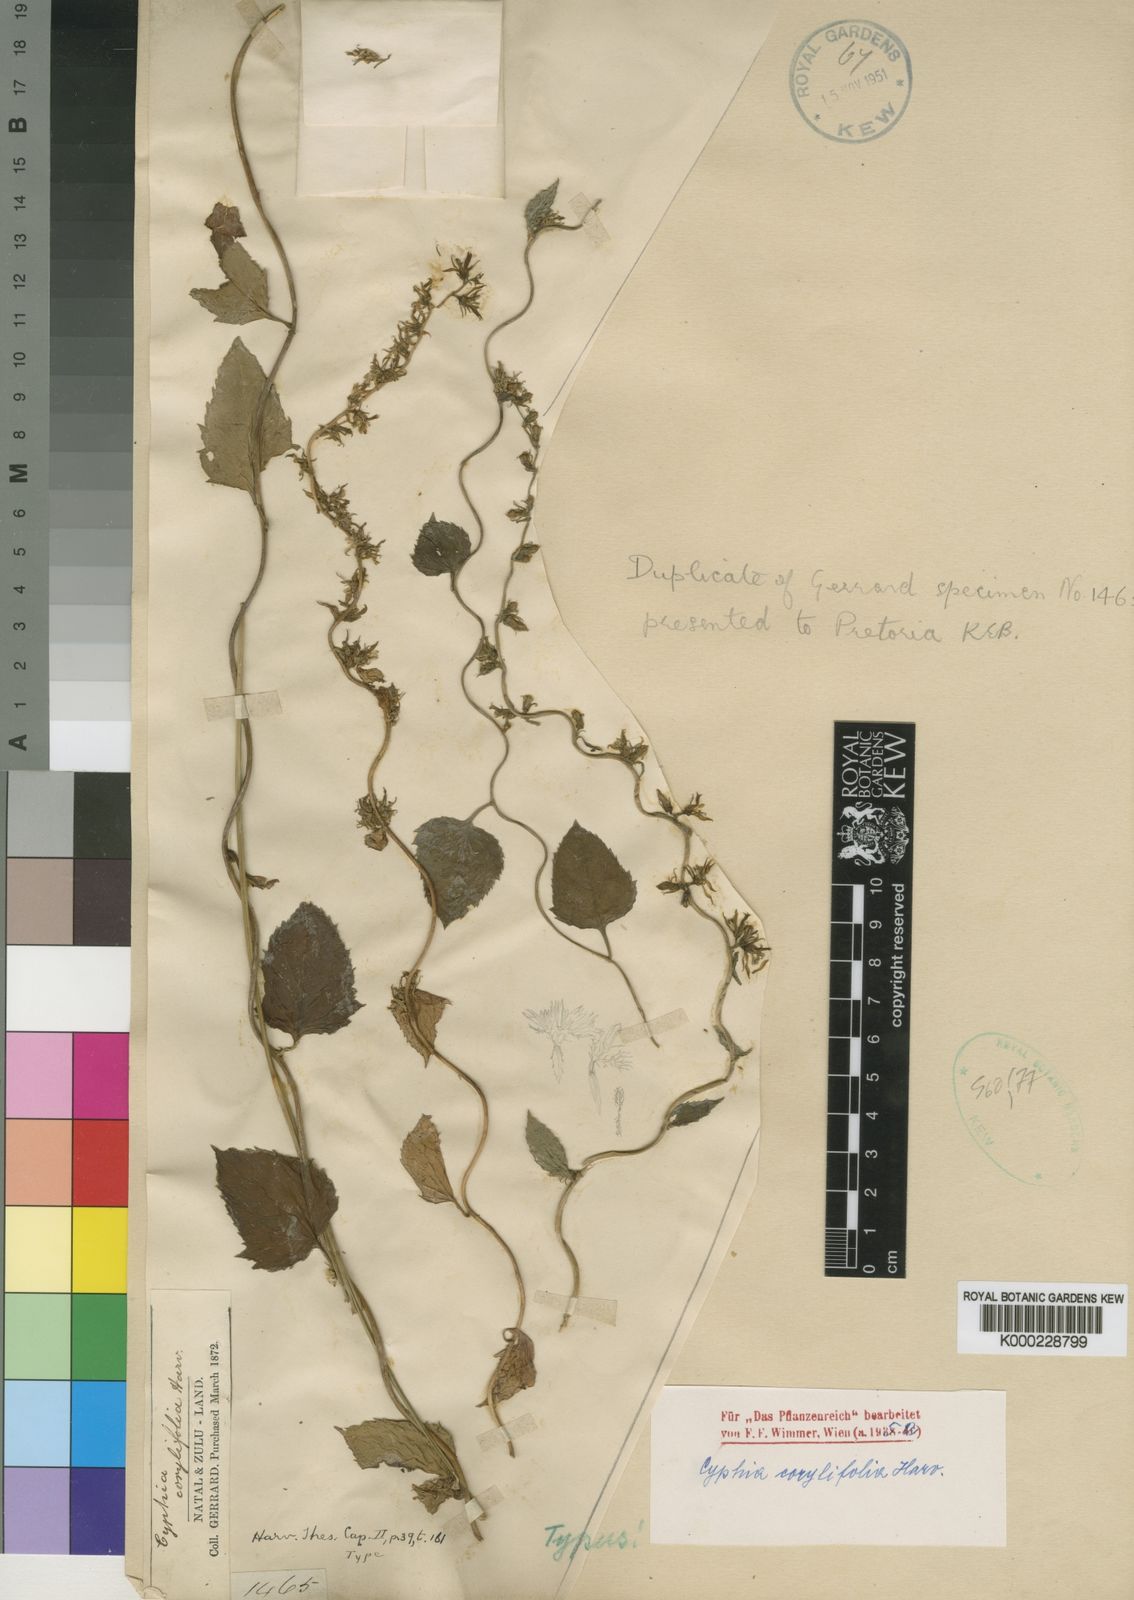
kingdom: Plantae
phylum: Tracheophyta
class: Magnoliopsida
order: Asterales
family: Campanulaceae
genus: Cyphia
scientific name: Cyphia corylifolia
